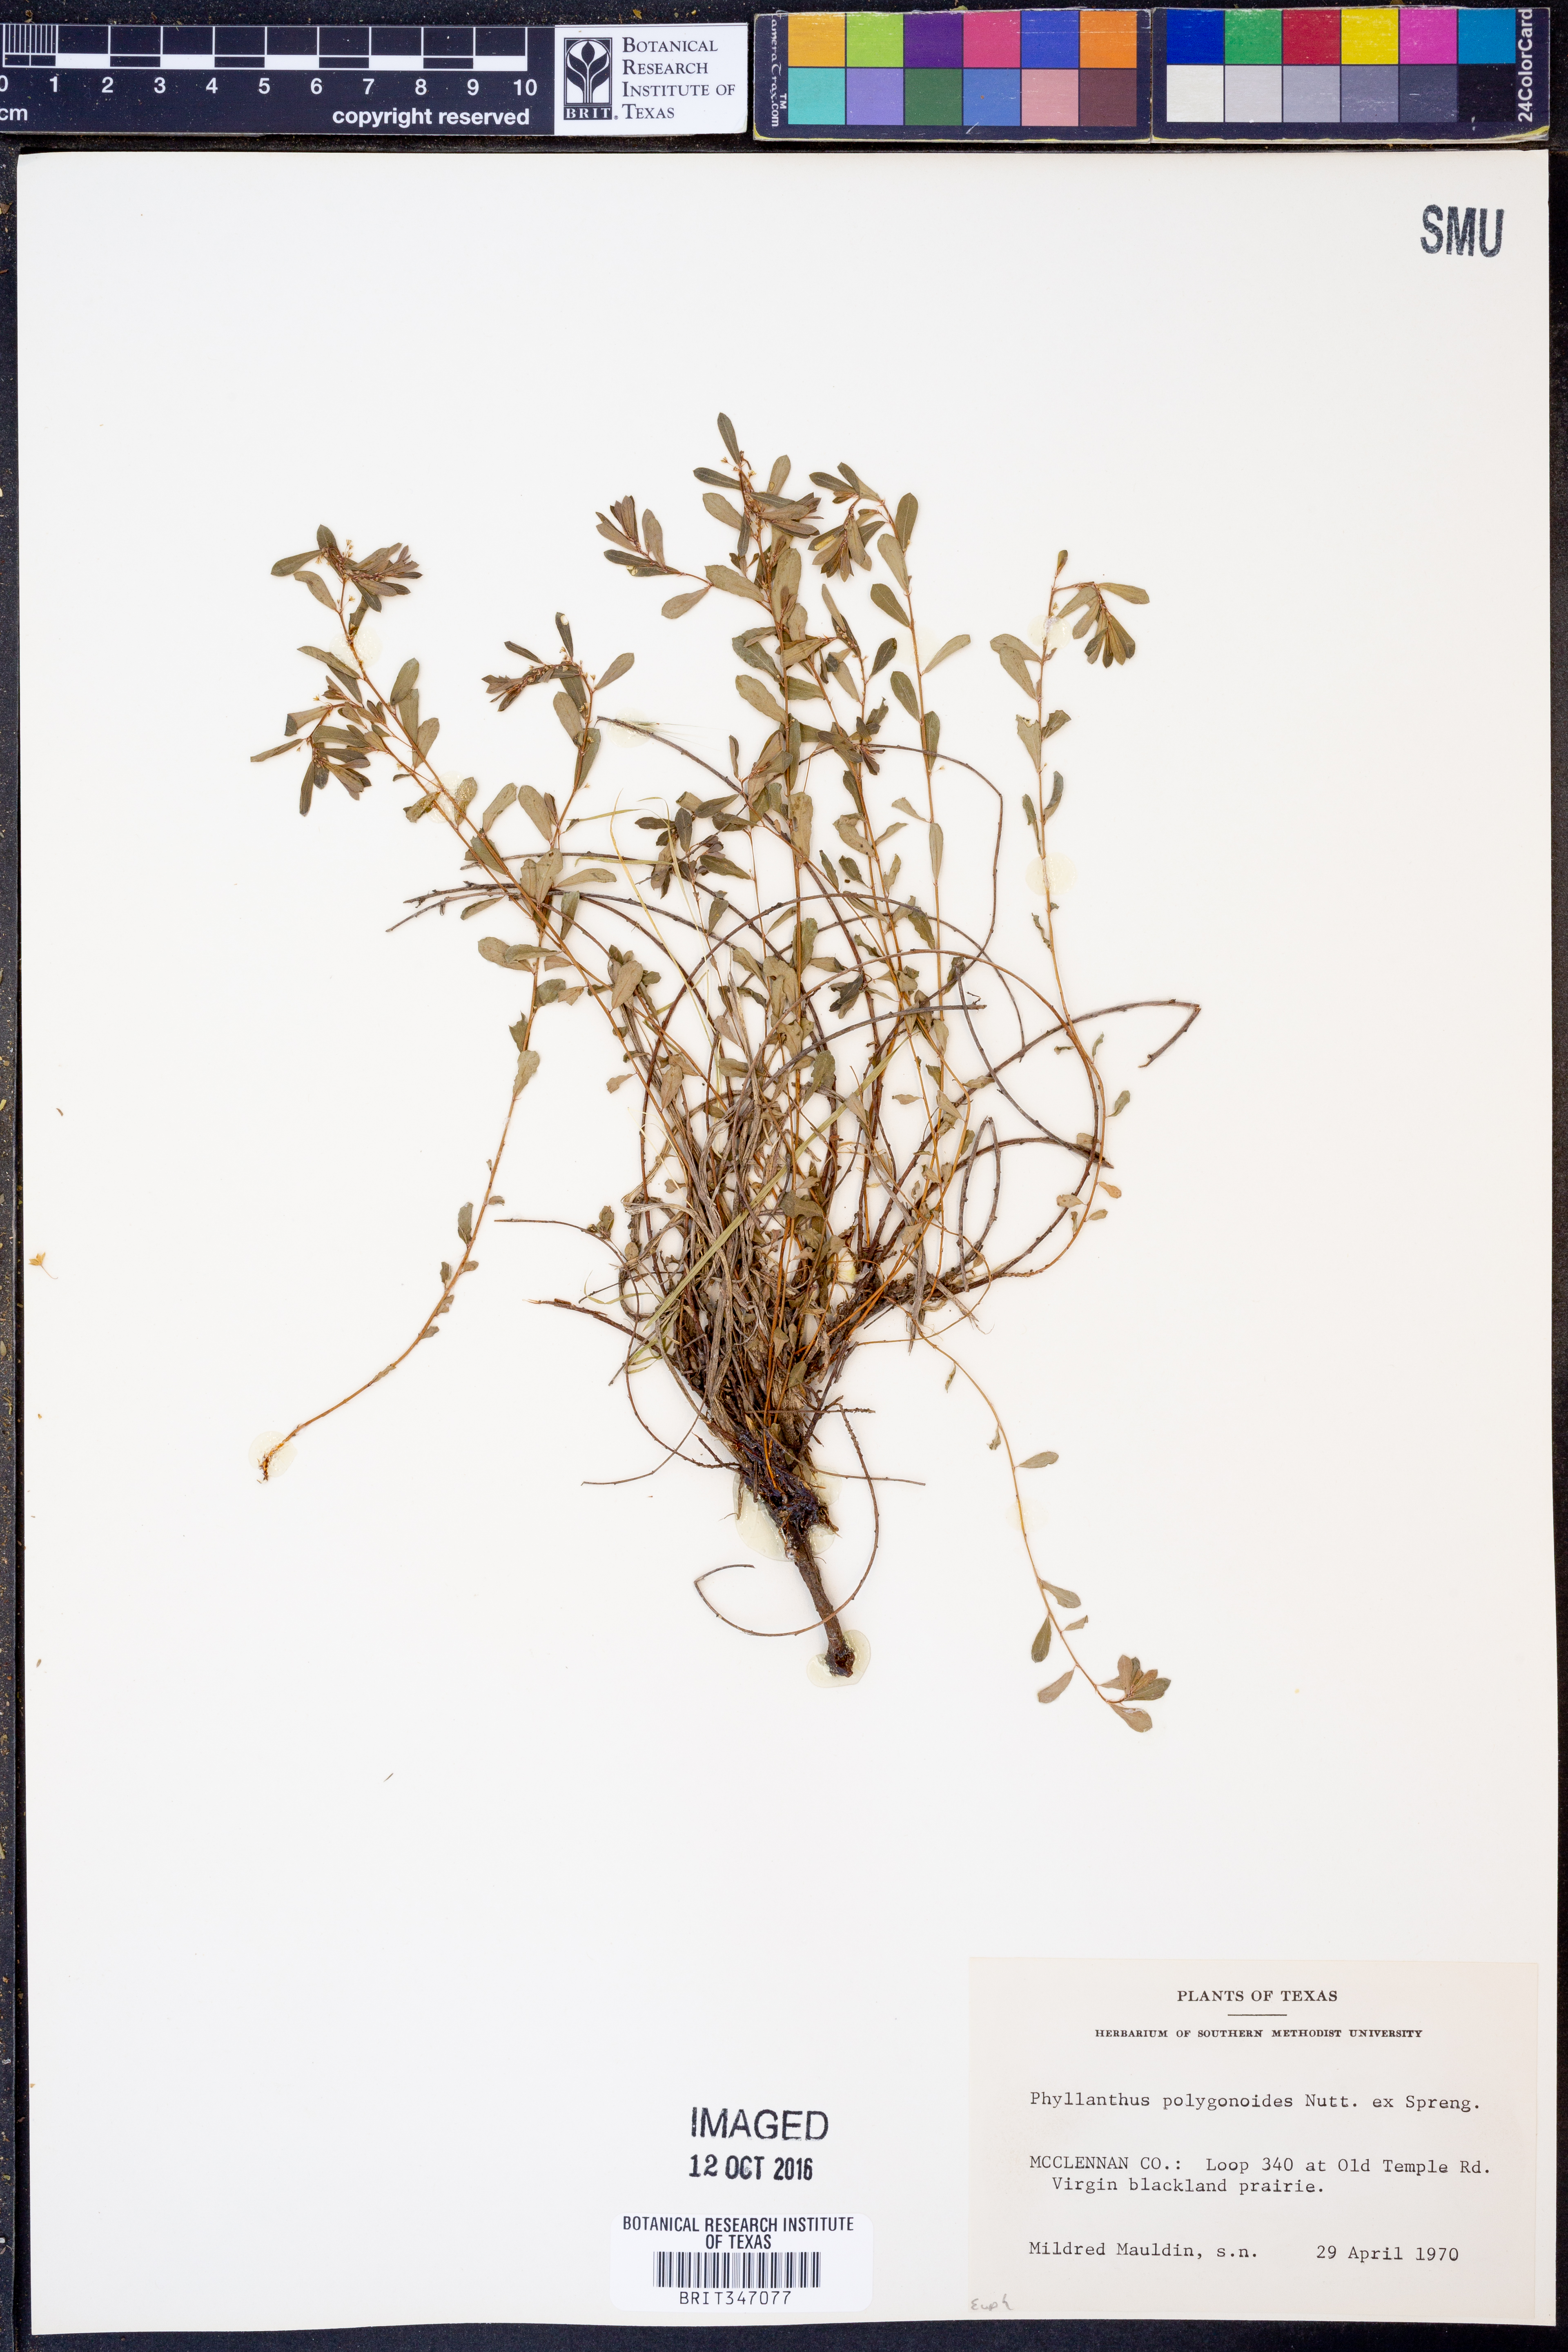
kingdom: Plantae
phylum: Tracheophyta
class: Magnoliopsida
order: Malpighiales
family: Phyllanthaceae
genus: Phyllanthus
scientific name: Phyllanthus polygonoides
